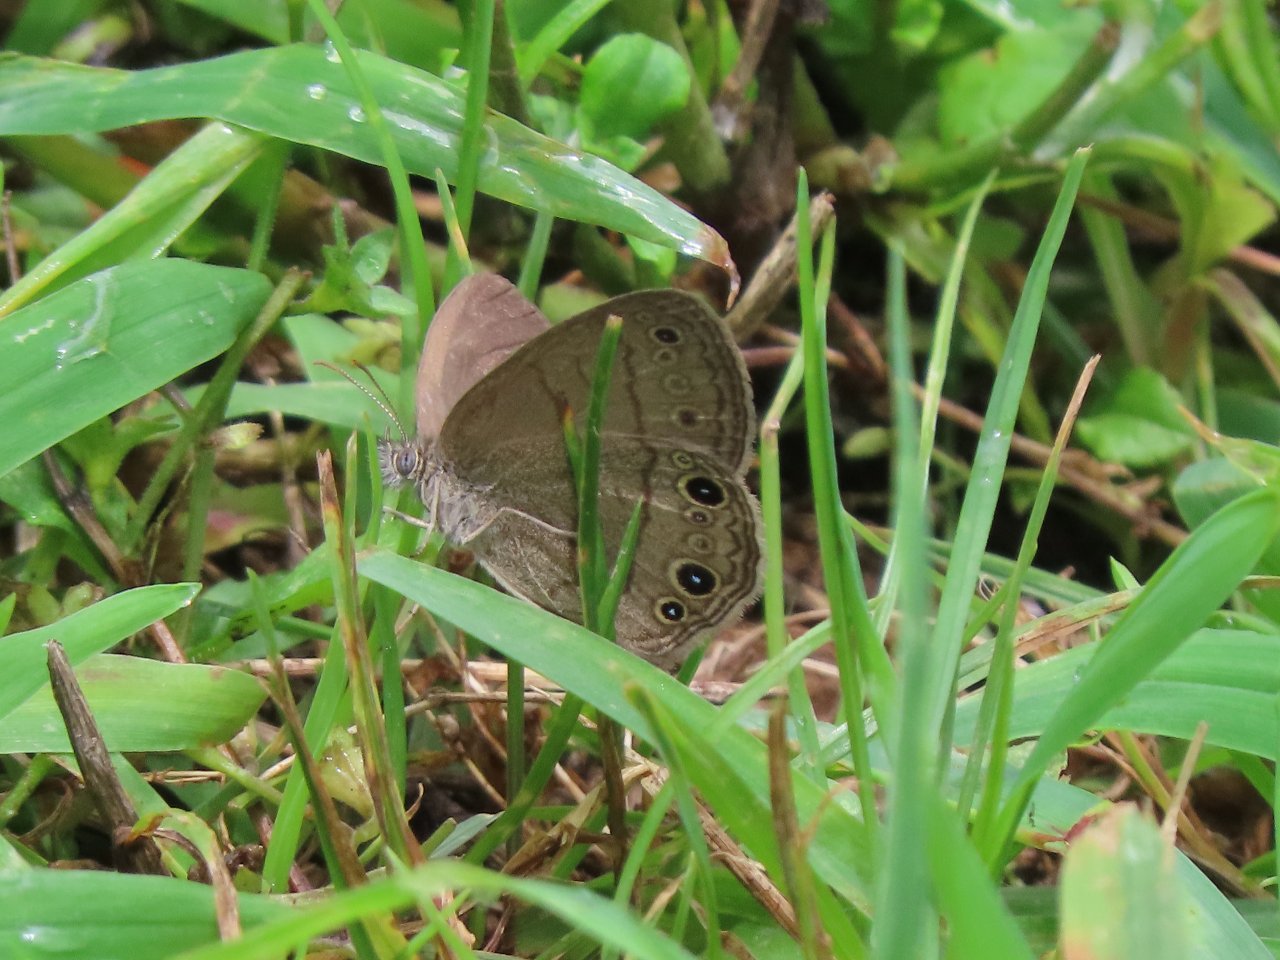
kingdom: Animalia
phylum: Arthropoda
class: Insecta
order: Lepidoptera
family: Nymphalidae
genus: Hermeuptychia
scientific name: Hermeuptychia hermes
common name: Carolina Satyr
